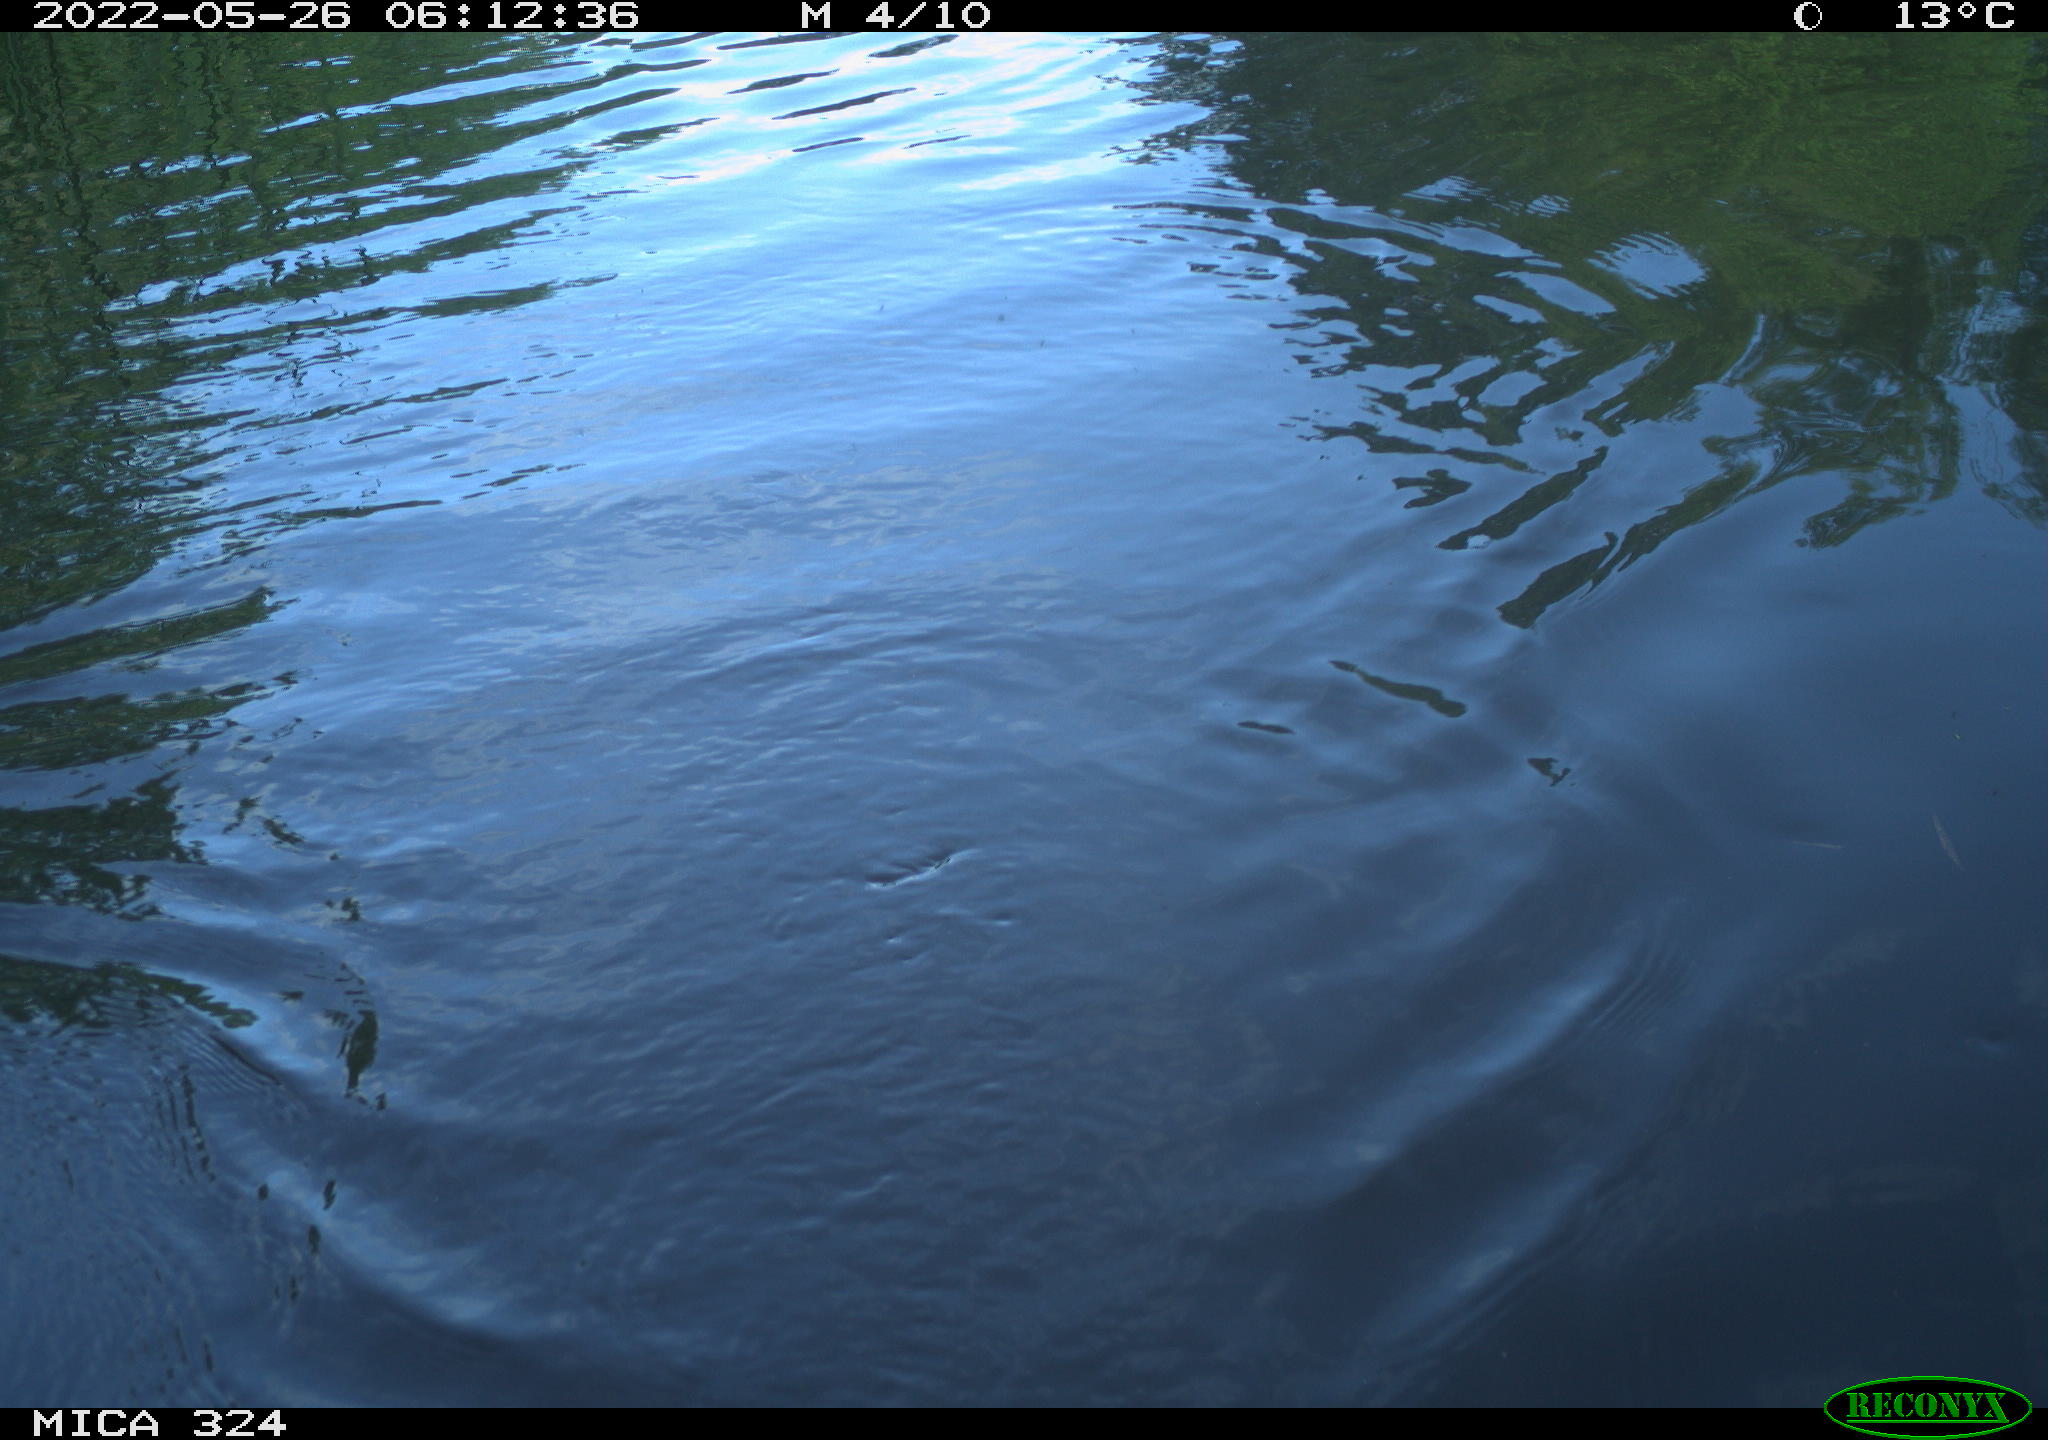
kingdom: Animalia
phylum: Chordata
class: Aves
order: Anseriformes
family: Anatidae
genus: Anas
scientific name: Anas platyrhynchos
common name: Mallard
